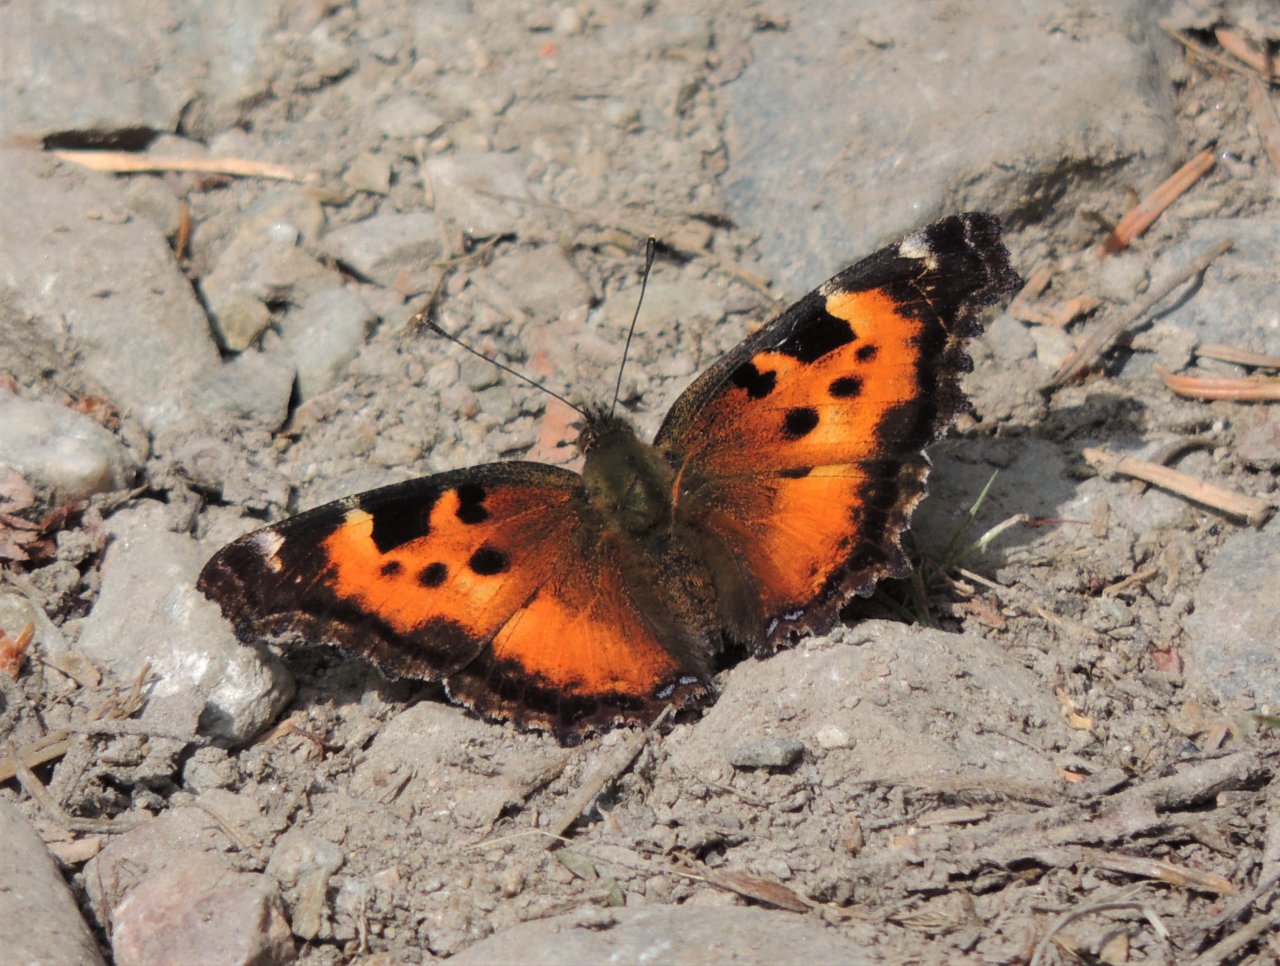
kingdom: Animalia
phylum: Arthropoda
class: Insecta
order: Lepidoptera
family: Nymphalidae
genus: Nymphalis
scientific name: Nymphalis californica
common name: California Tortoiseshell
